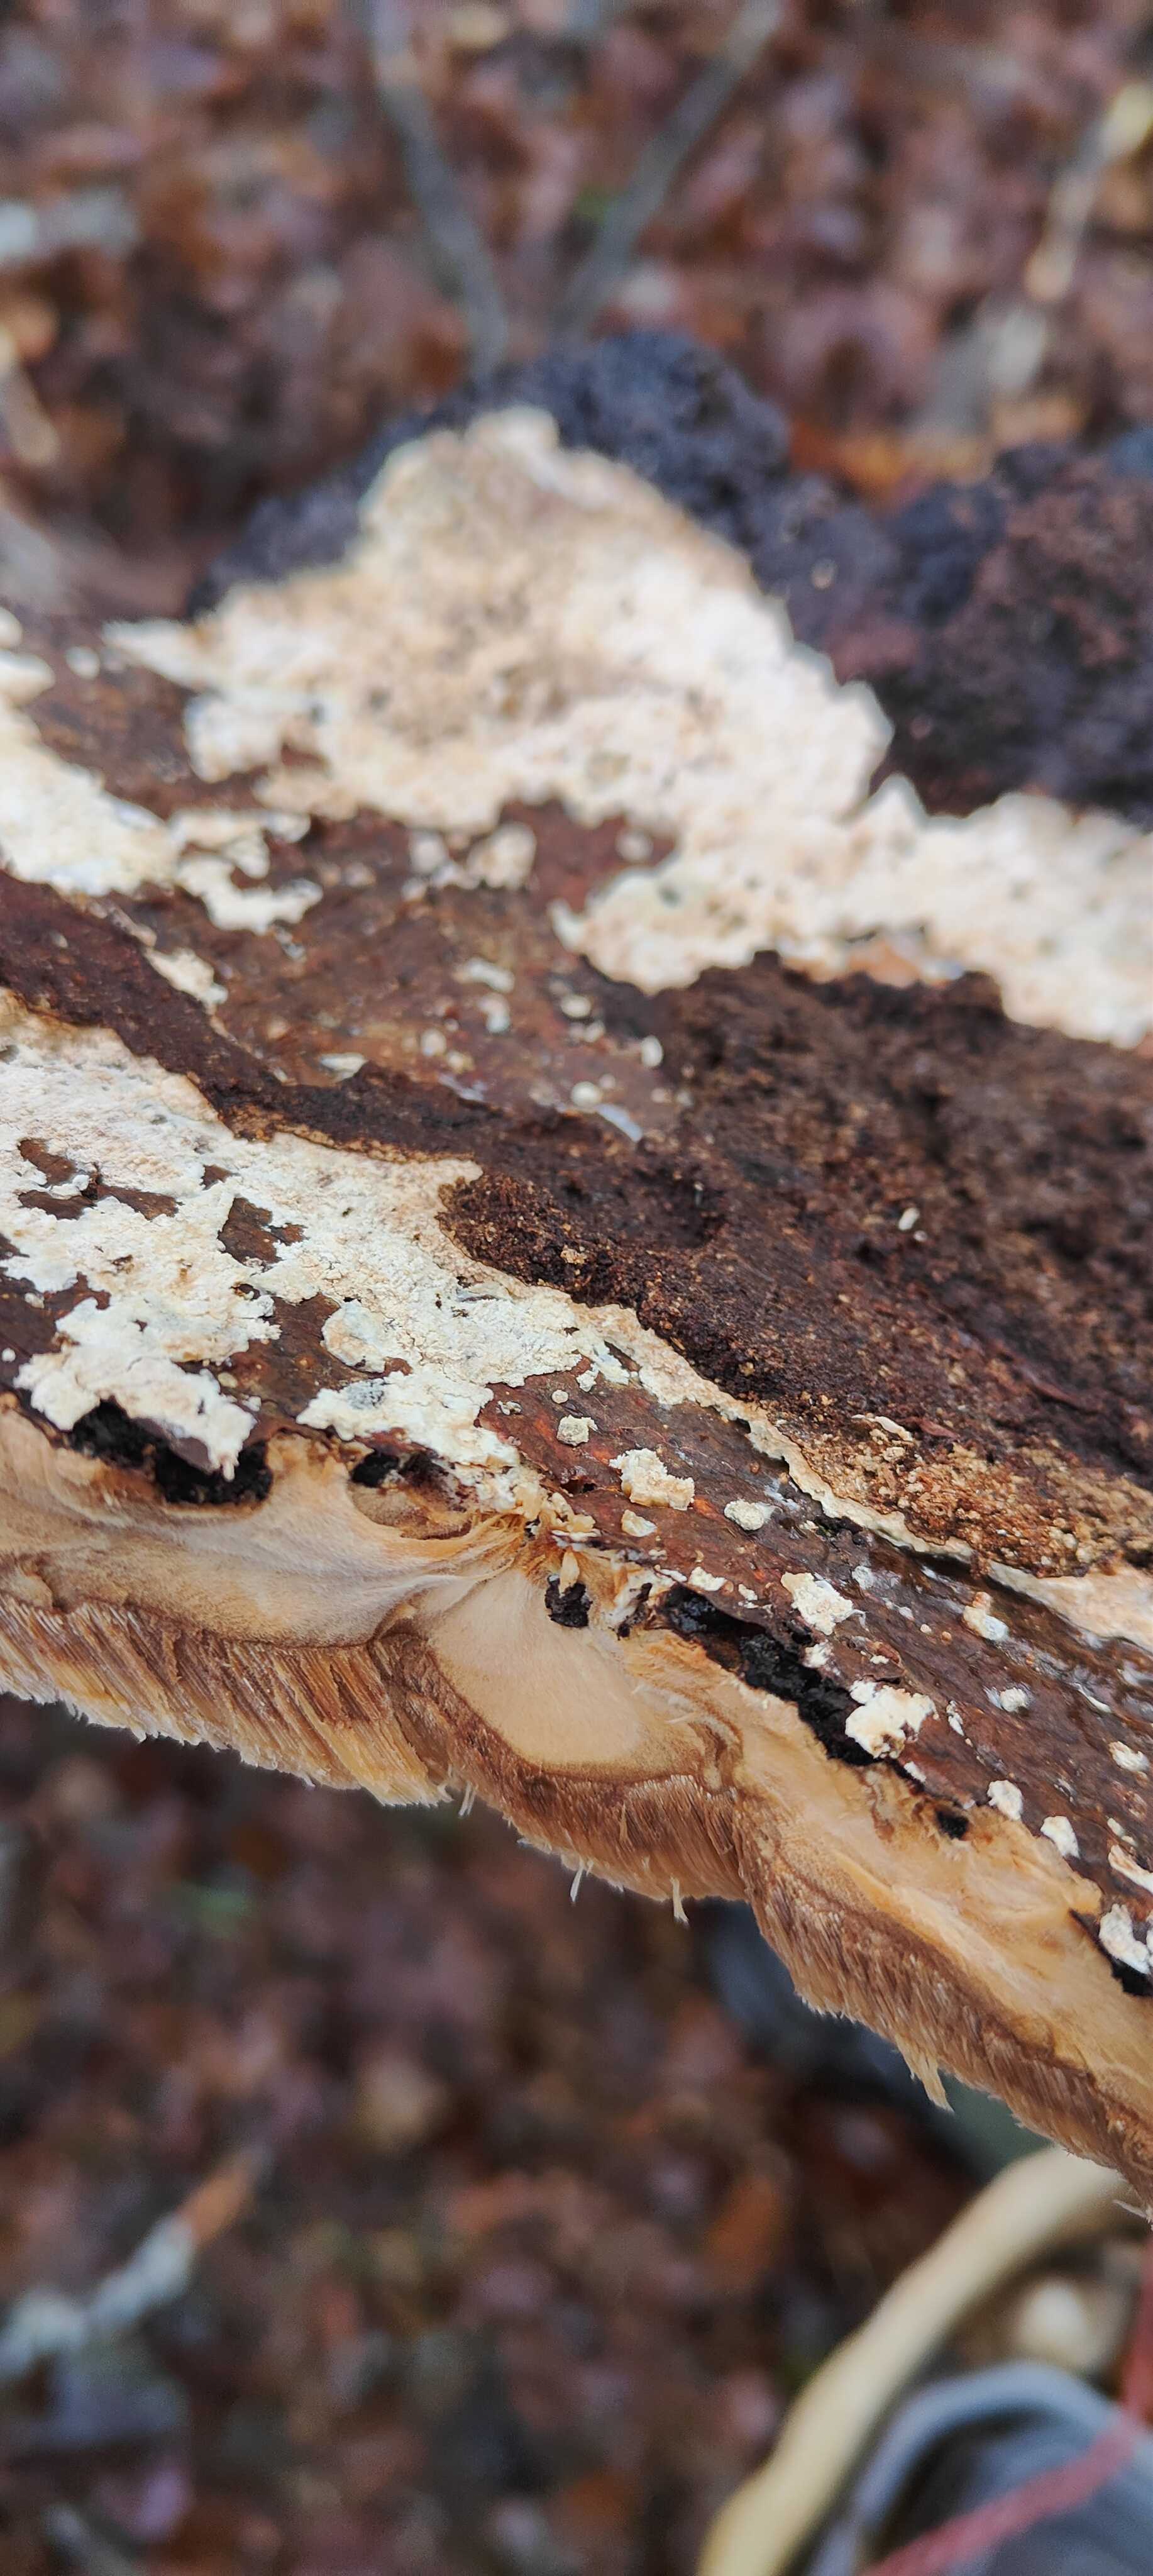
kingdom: Fungi
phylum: Basidiomycota
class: Agaricomycetes
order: Polyporales
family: Ischnodermataceae
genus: Ischnoderma
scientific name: Ischnoderma resinosum
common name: løv-tjæreporesvamp
